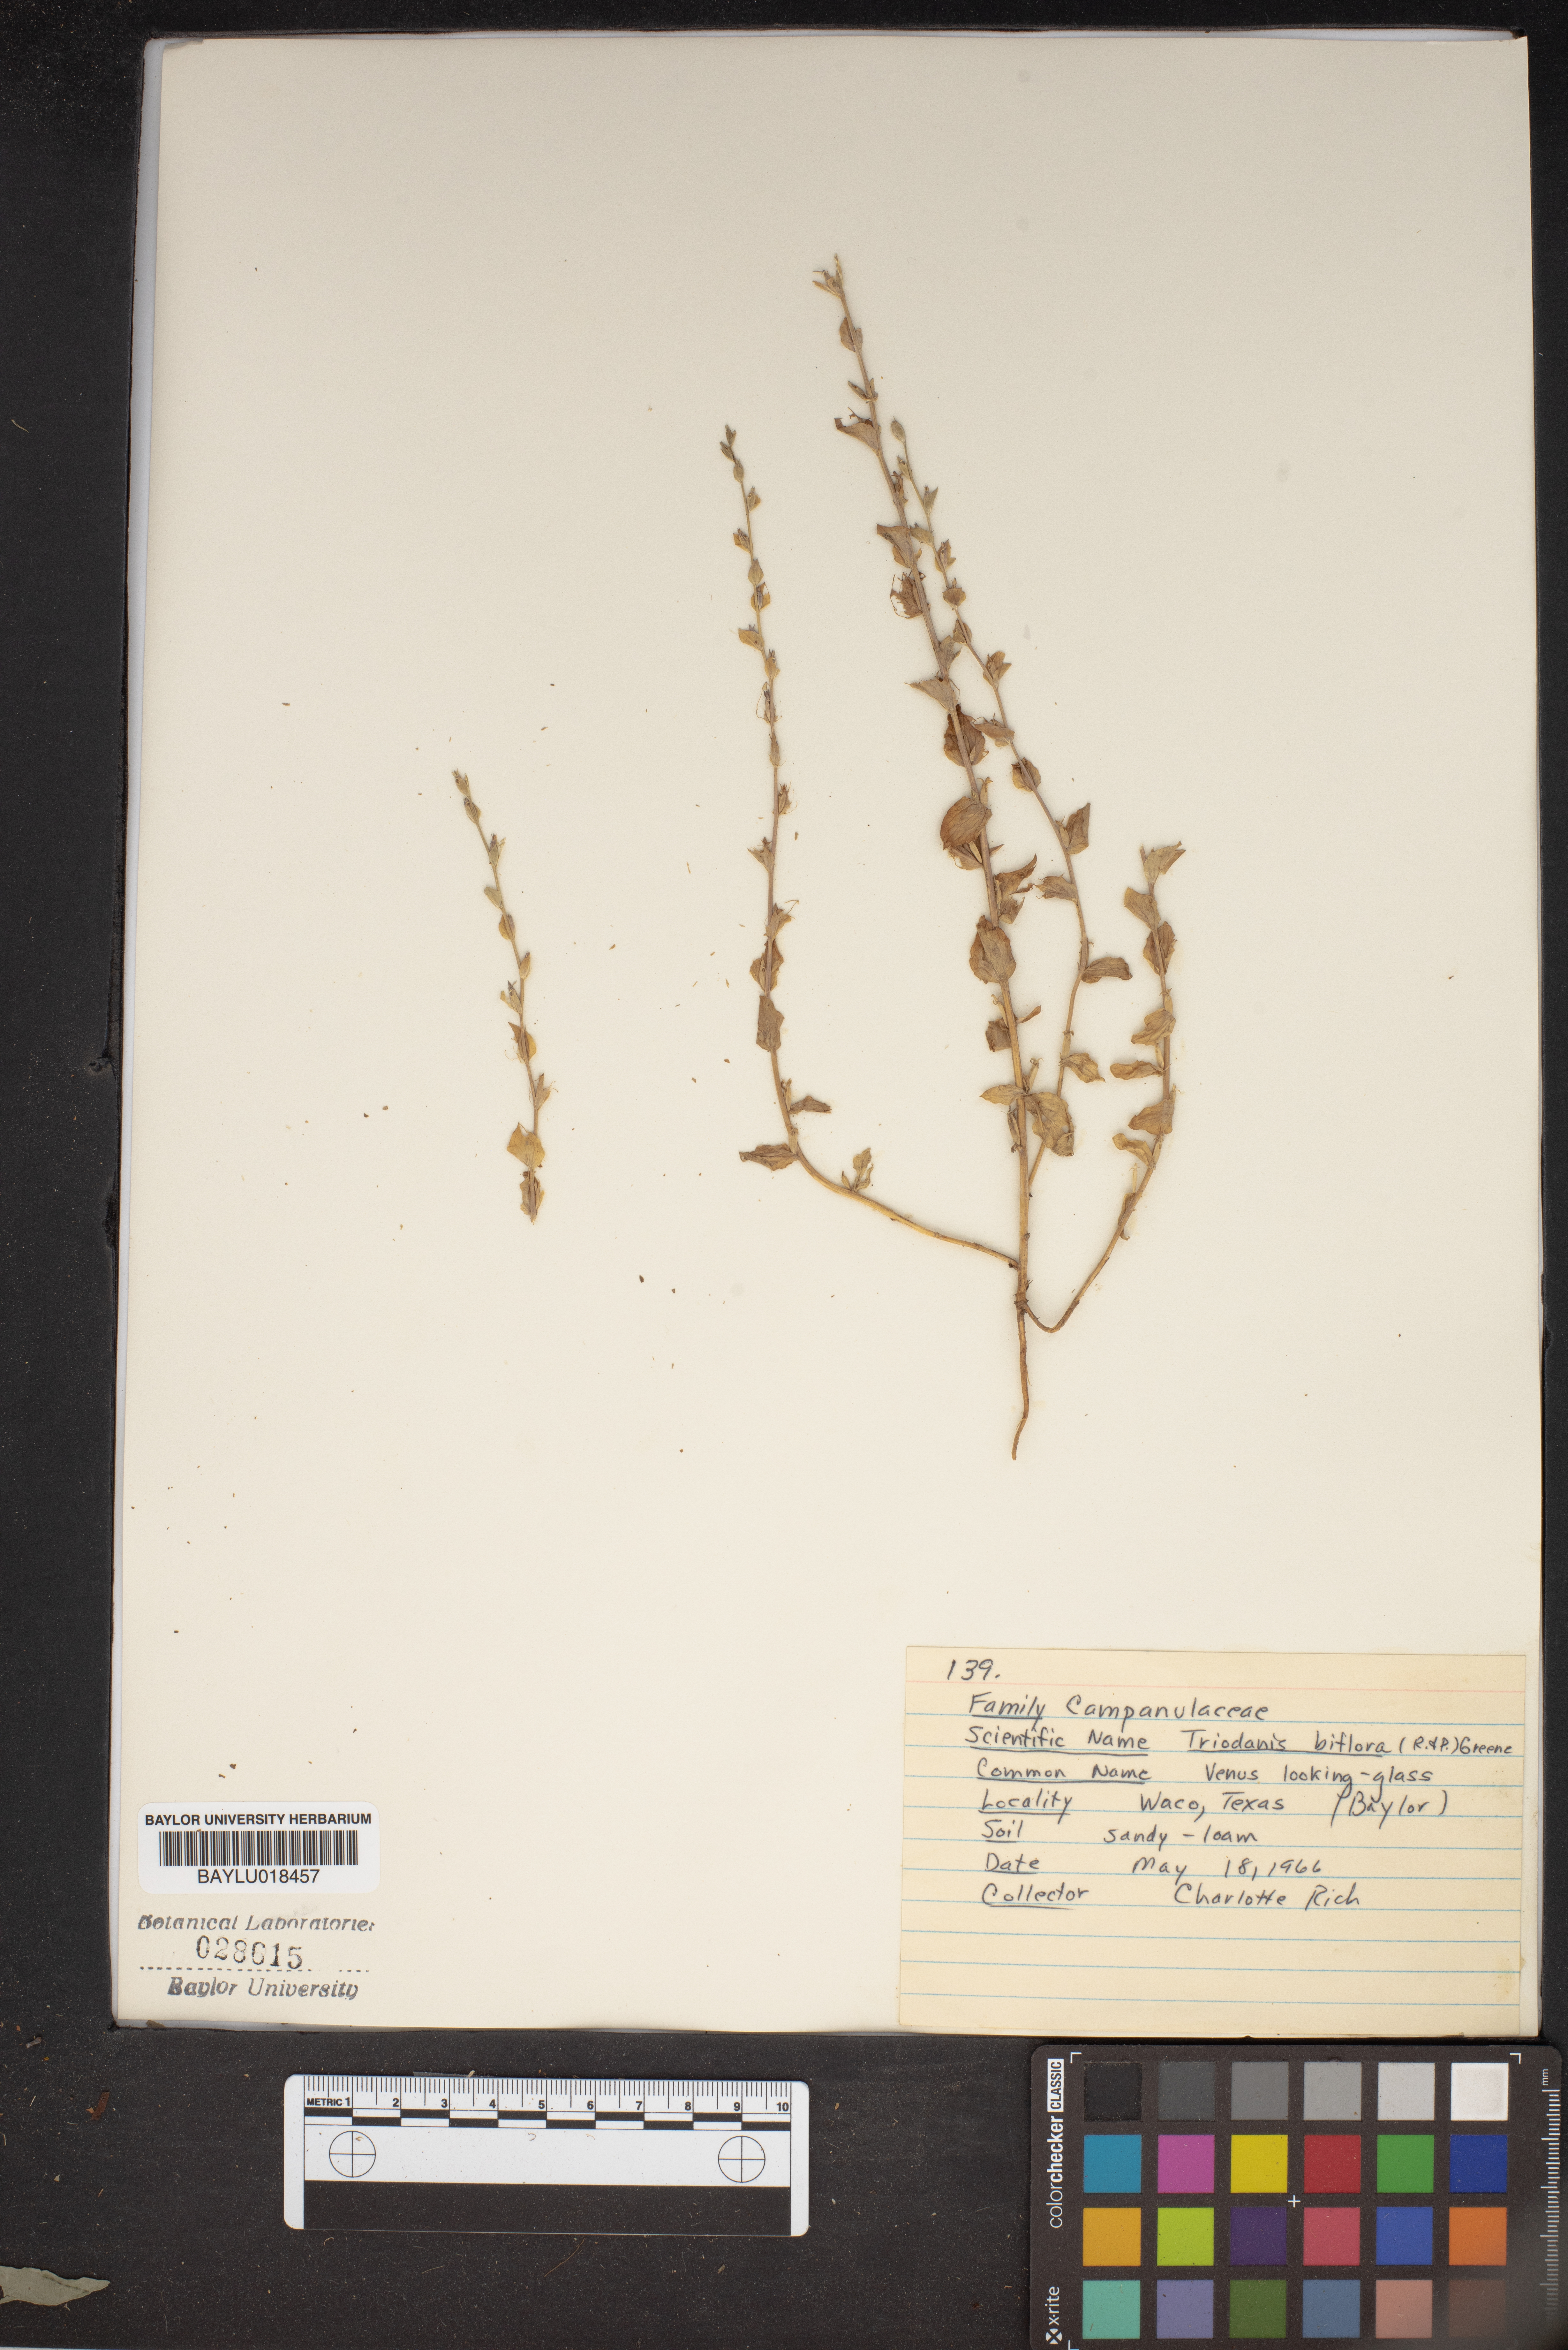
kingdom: Plantae
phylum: Tracheophyta
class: Magnoliopsida
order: Asterales
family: Campanulaceae
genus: Triodanis
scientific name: Triodanis perfoliata
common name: Clasping venus' looking-glass
